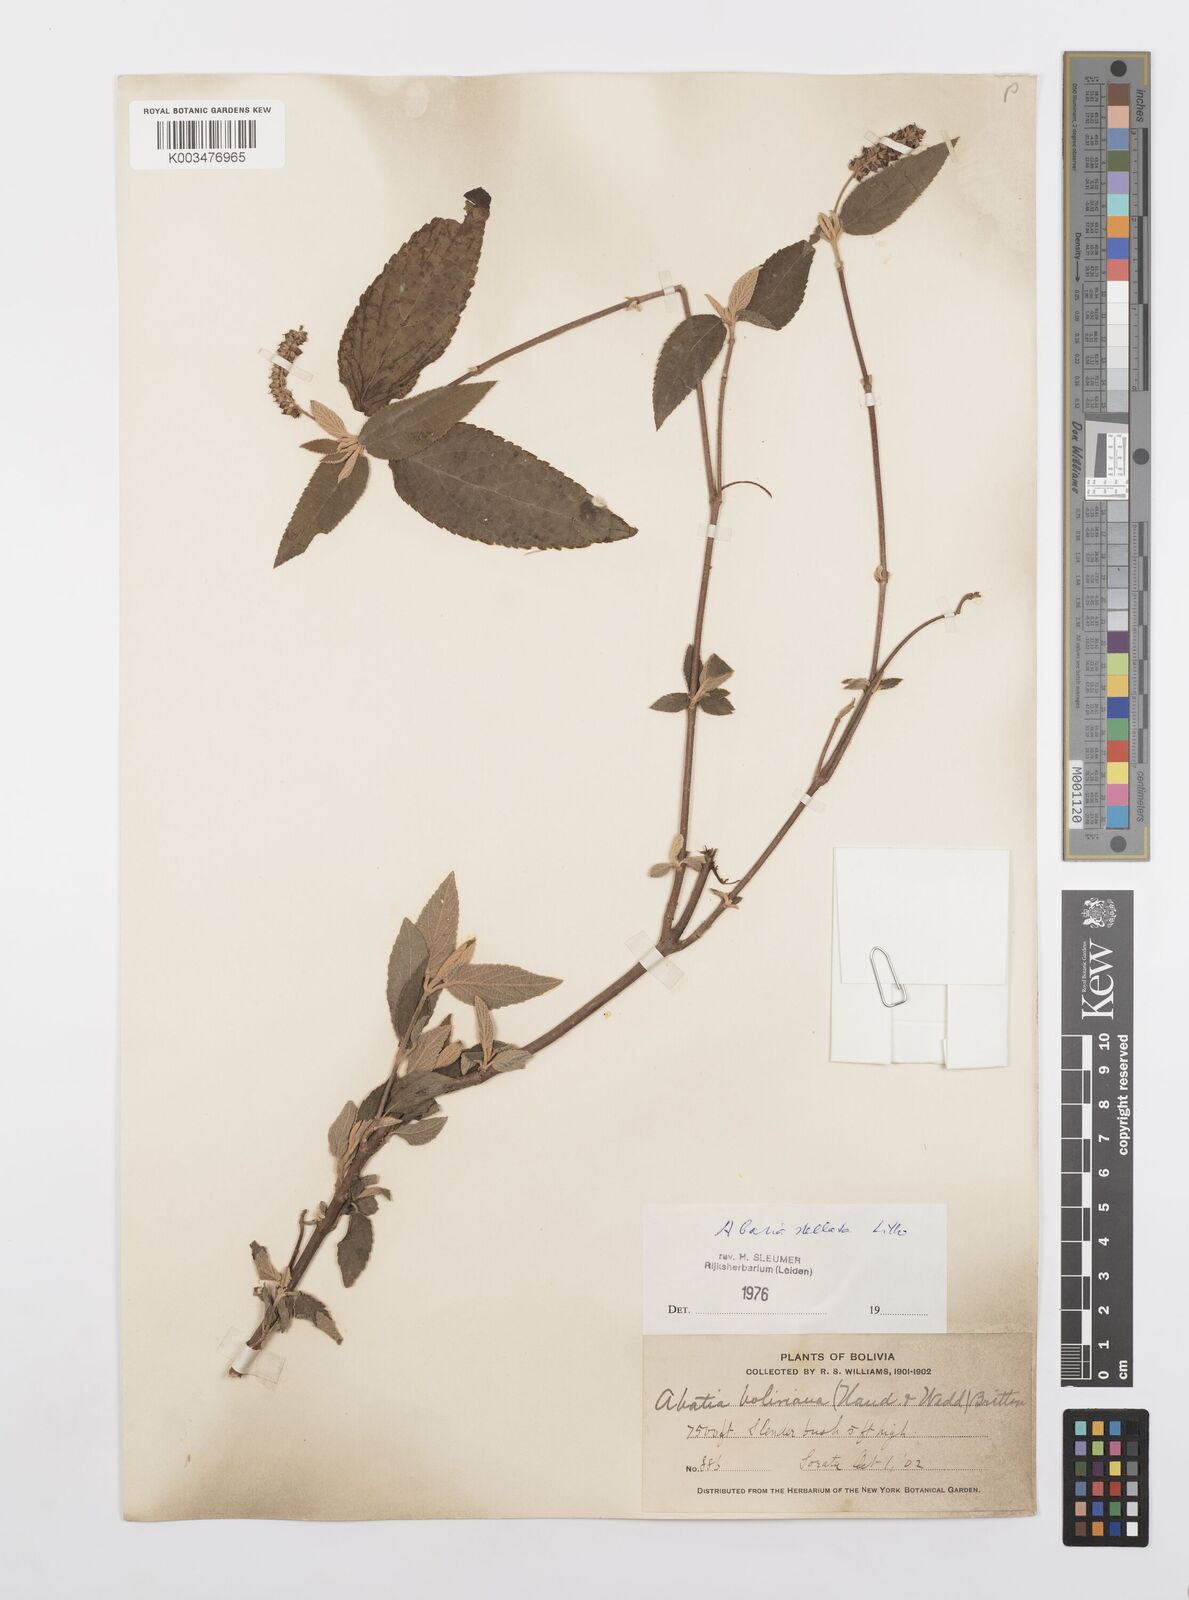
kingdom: Plantae
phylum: Tracheophyta
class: Magnoliopsida
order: Malpighiales
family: Salicaceae
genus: Abatia
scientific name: Abatia stellata
